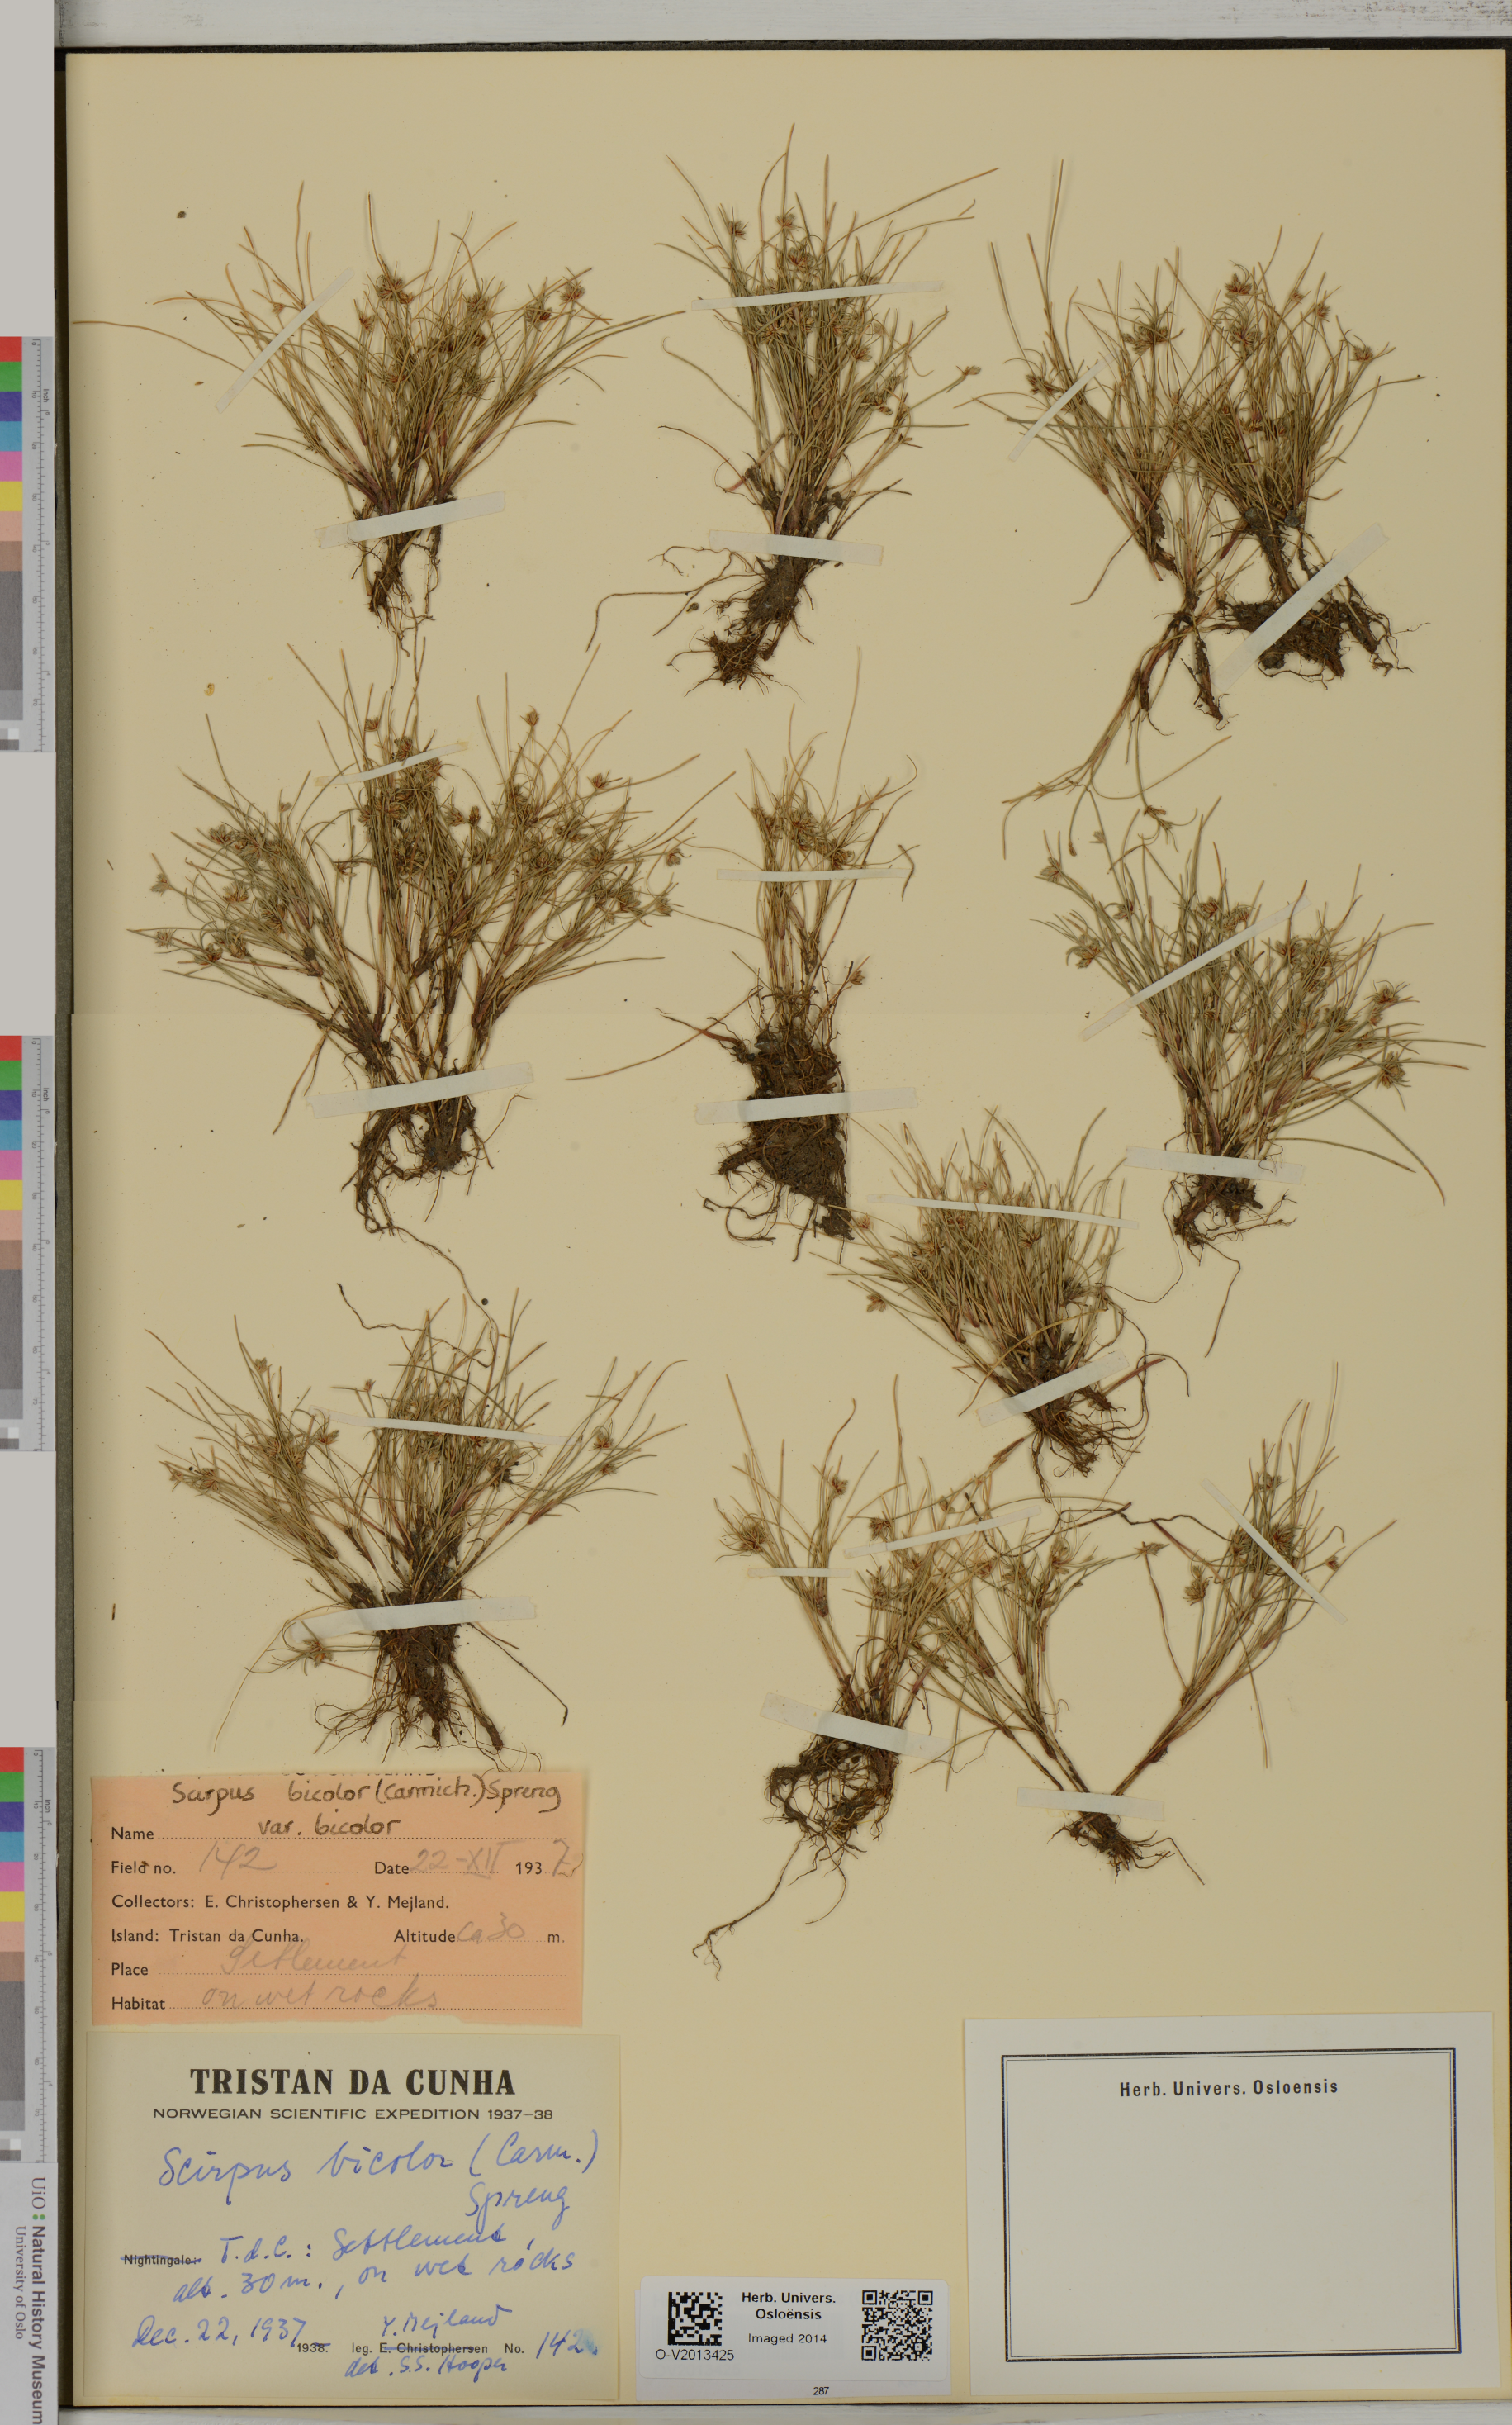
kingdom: Plantae
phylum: Tracheophyta
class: Liliopsida
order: Poales
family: Cyperaceae
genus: Isolepis
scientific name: Isolepis bicolor
